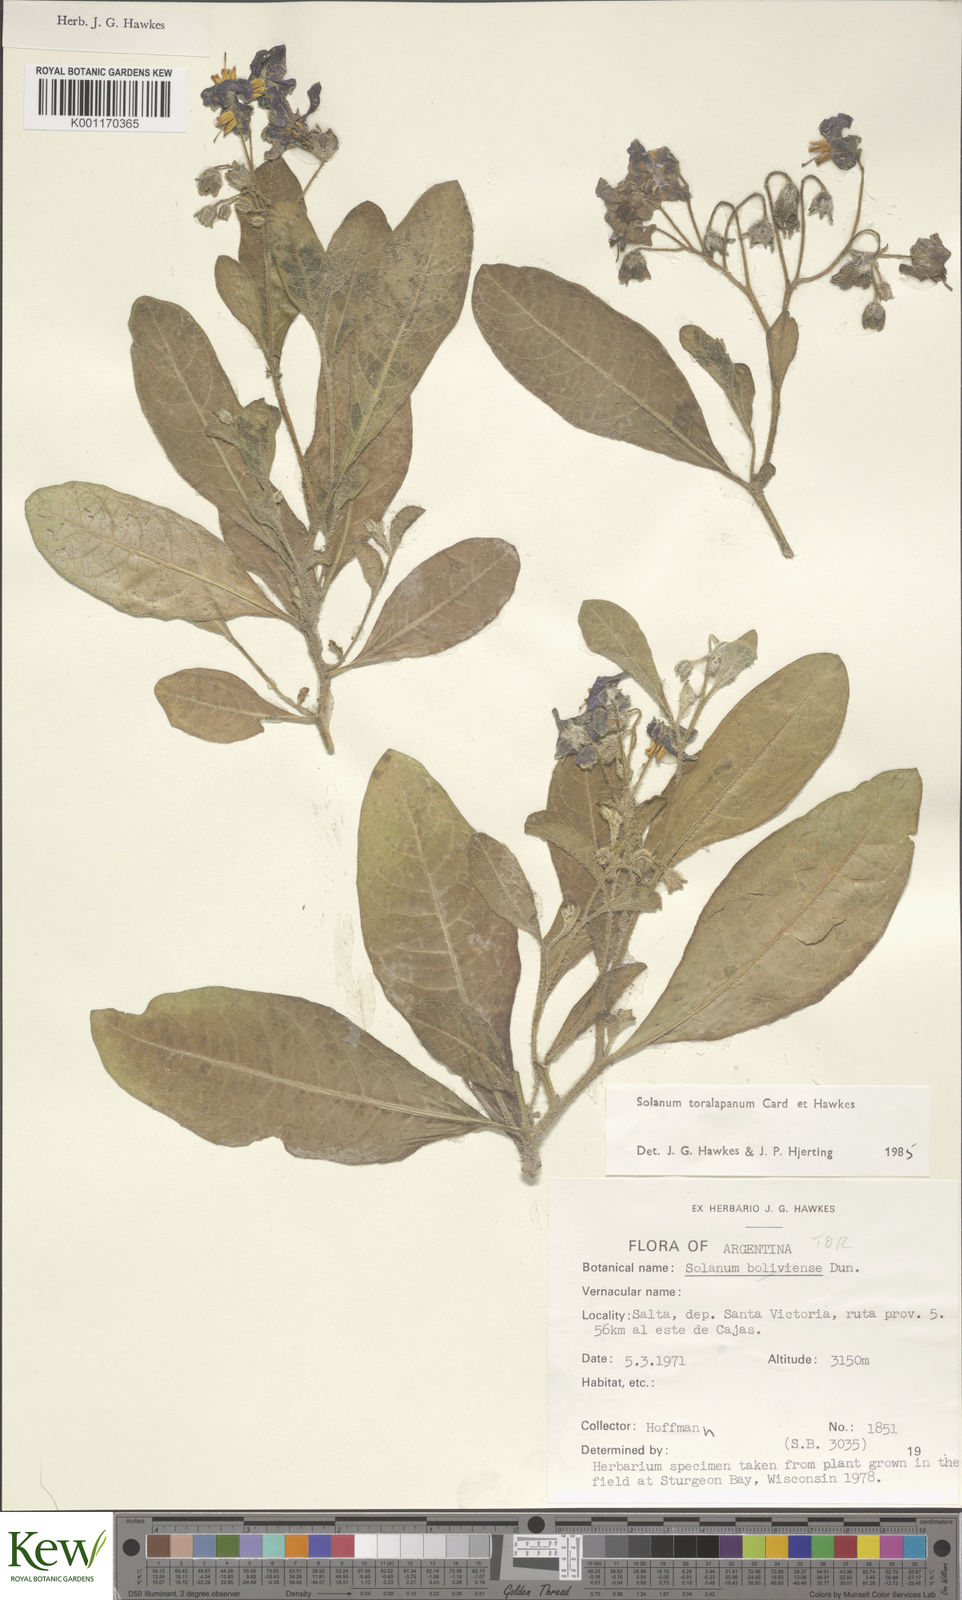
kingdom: Plantae
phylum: Tracheophyta
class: Magnoliopsida
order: Solanales
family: Solanaceae
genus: Solanum
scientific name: Solanum
